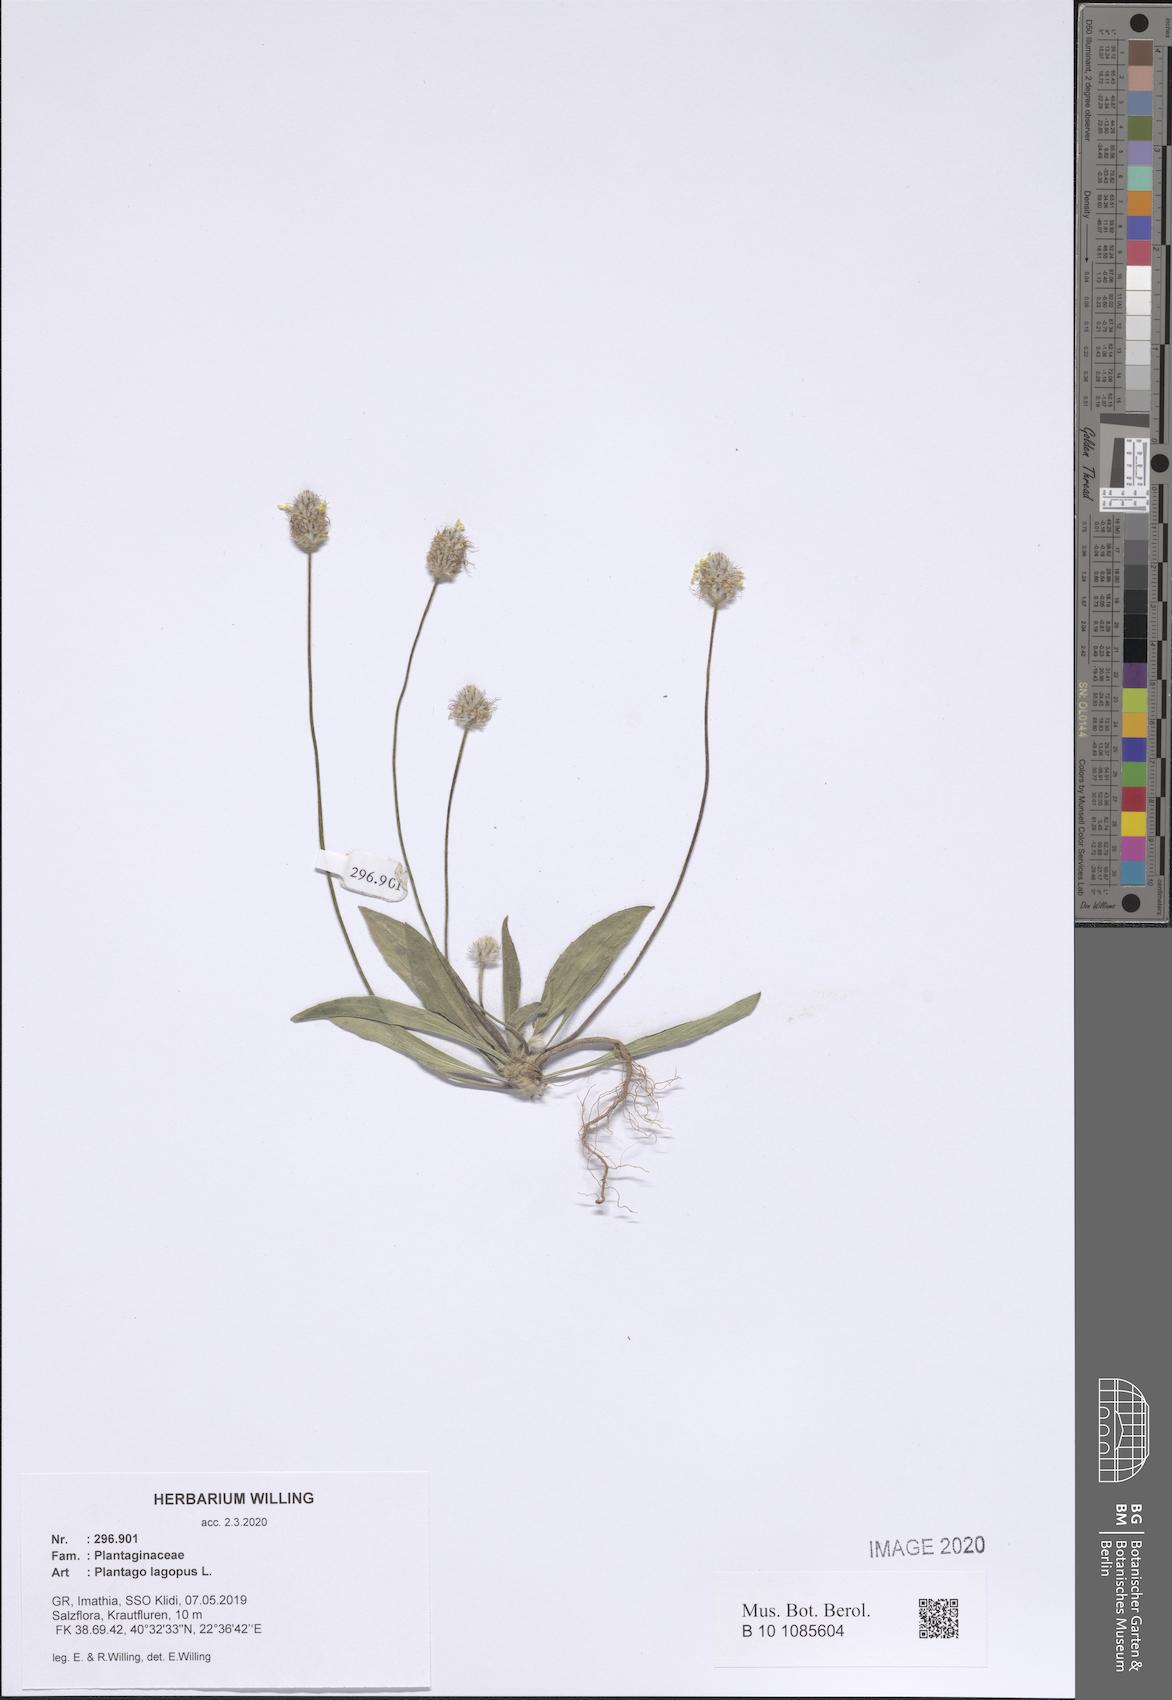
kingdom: Plantae
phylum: Tracheophyta
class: Magnoliopsida
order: Lamiales
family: Plantaginaceae
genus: Plantago
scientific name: Plantago lagopus
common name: Hare-foot plantain
